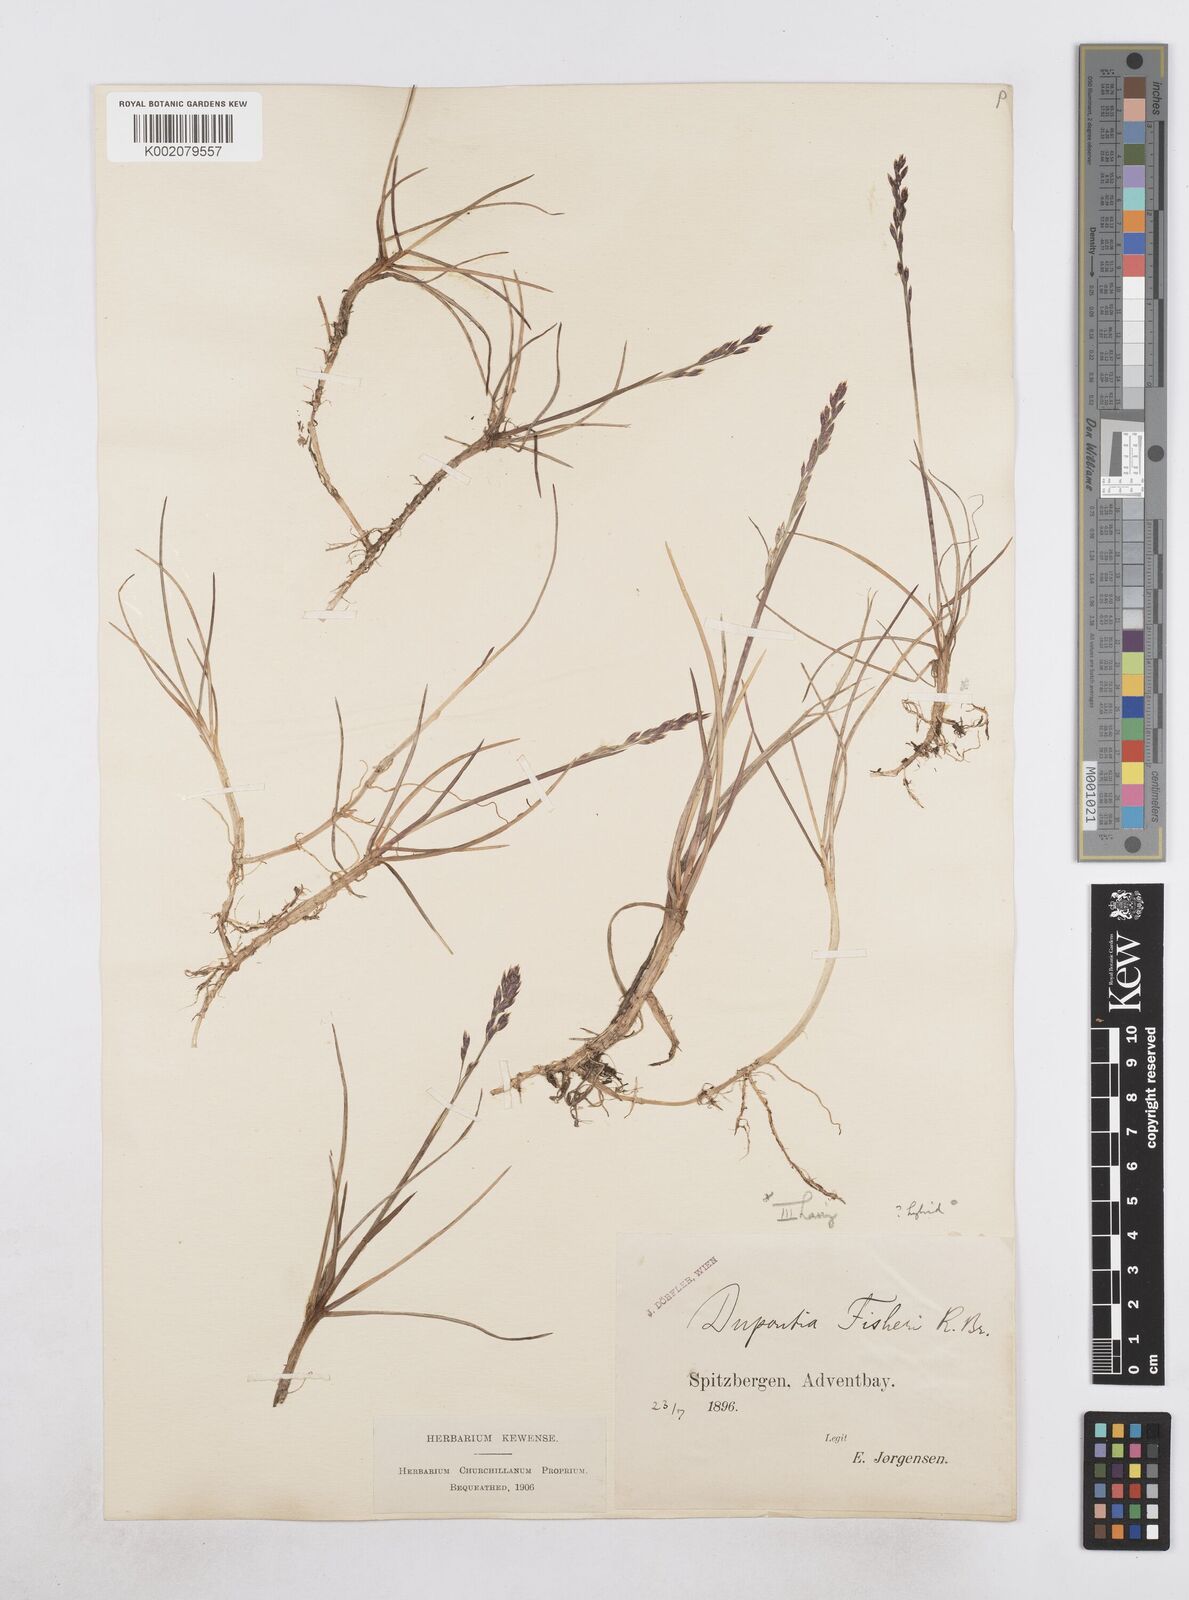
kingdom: Plantae
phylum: Tracheophyta
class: Liliopsida
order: Poales
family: Poaceae
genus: Dupontia
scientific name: Dupontia fisheri
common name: Tundra grass
